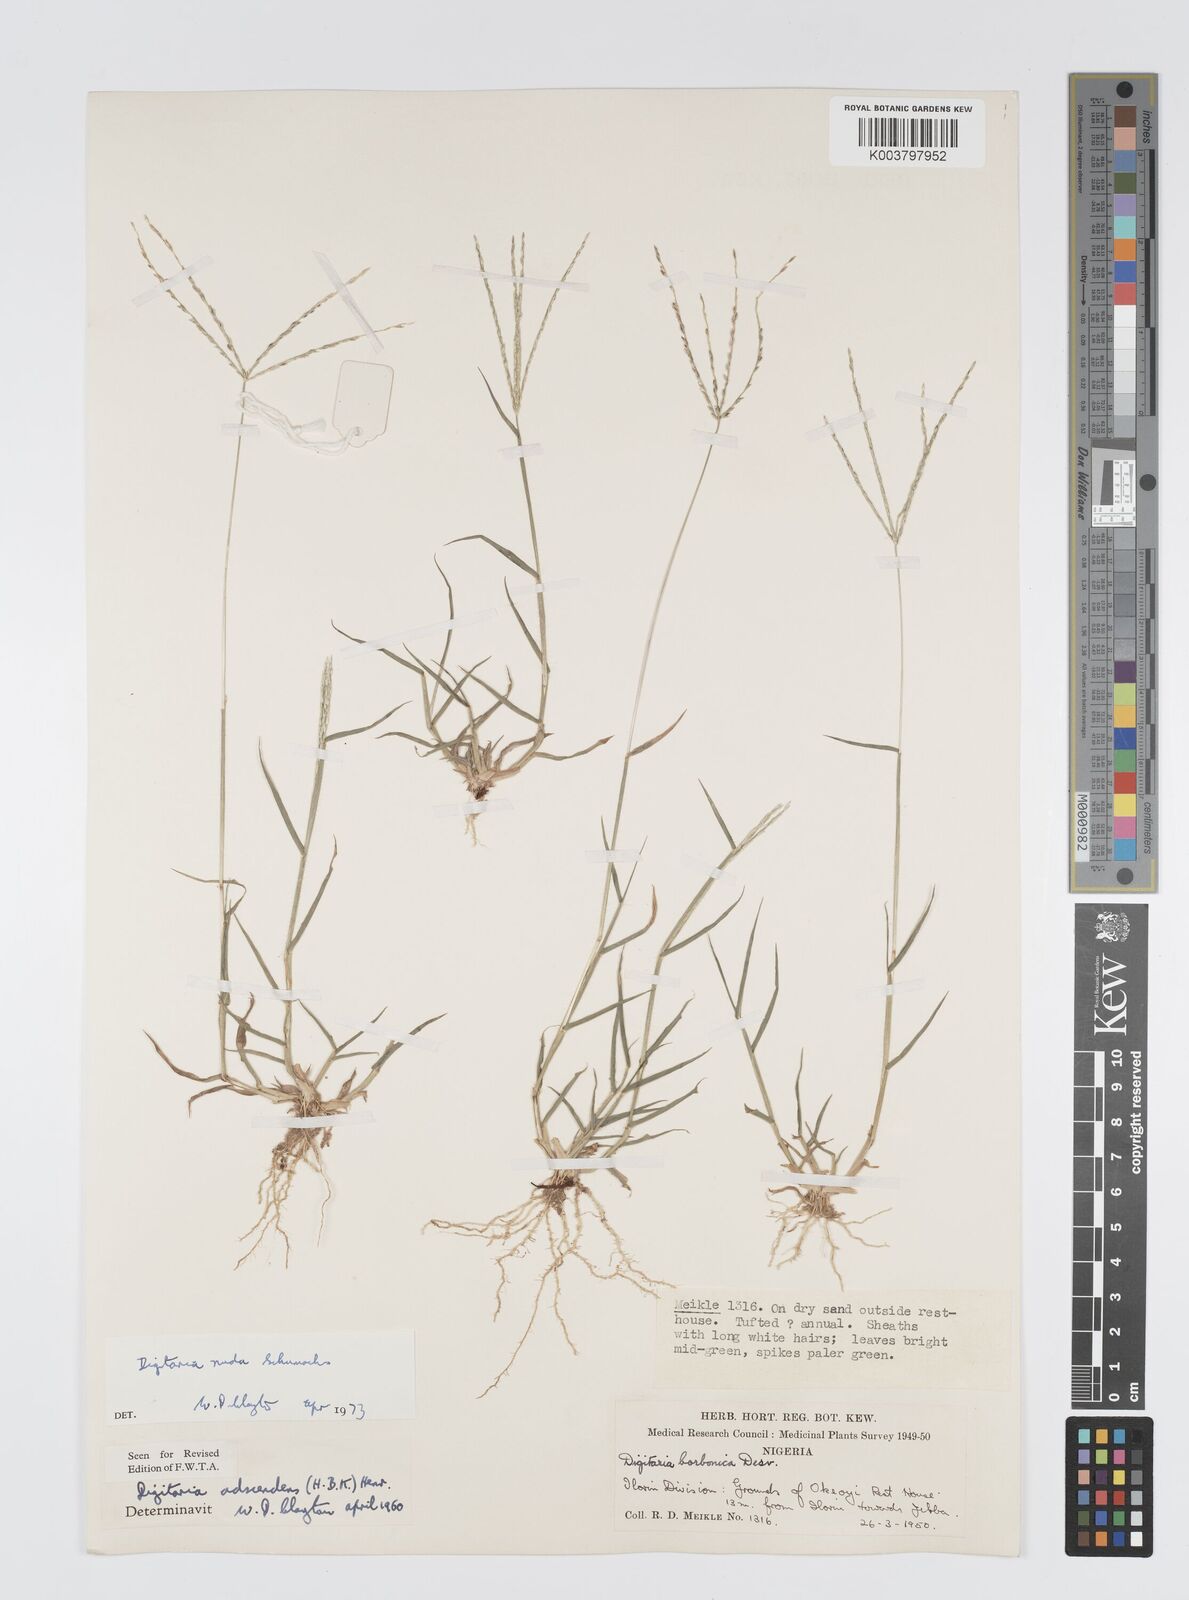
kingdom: Plantae
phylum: Tracheophyta
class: Liliopsida
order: Poales
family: Poaceae
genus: Digitaria
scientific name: Digitaria nuda
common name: Naked crabgrass
